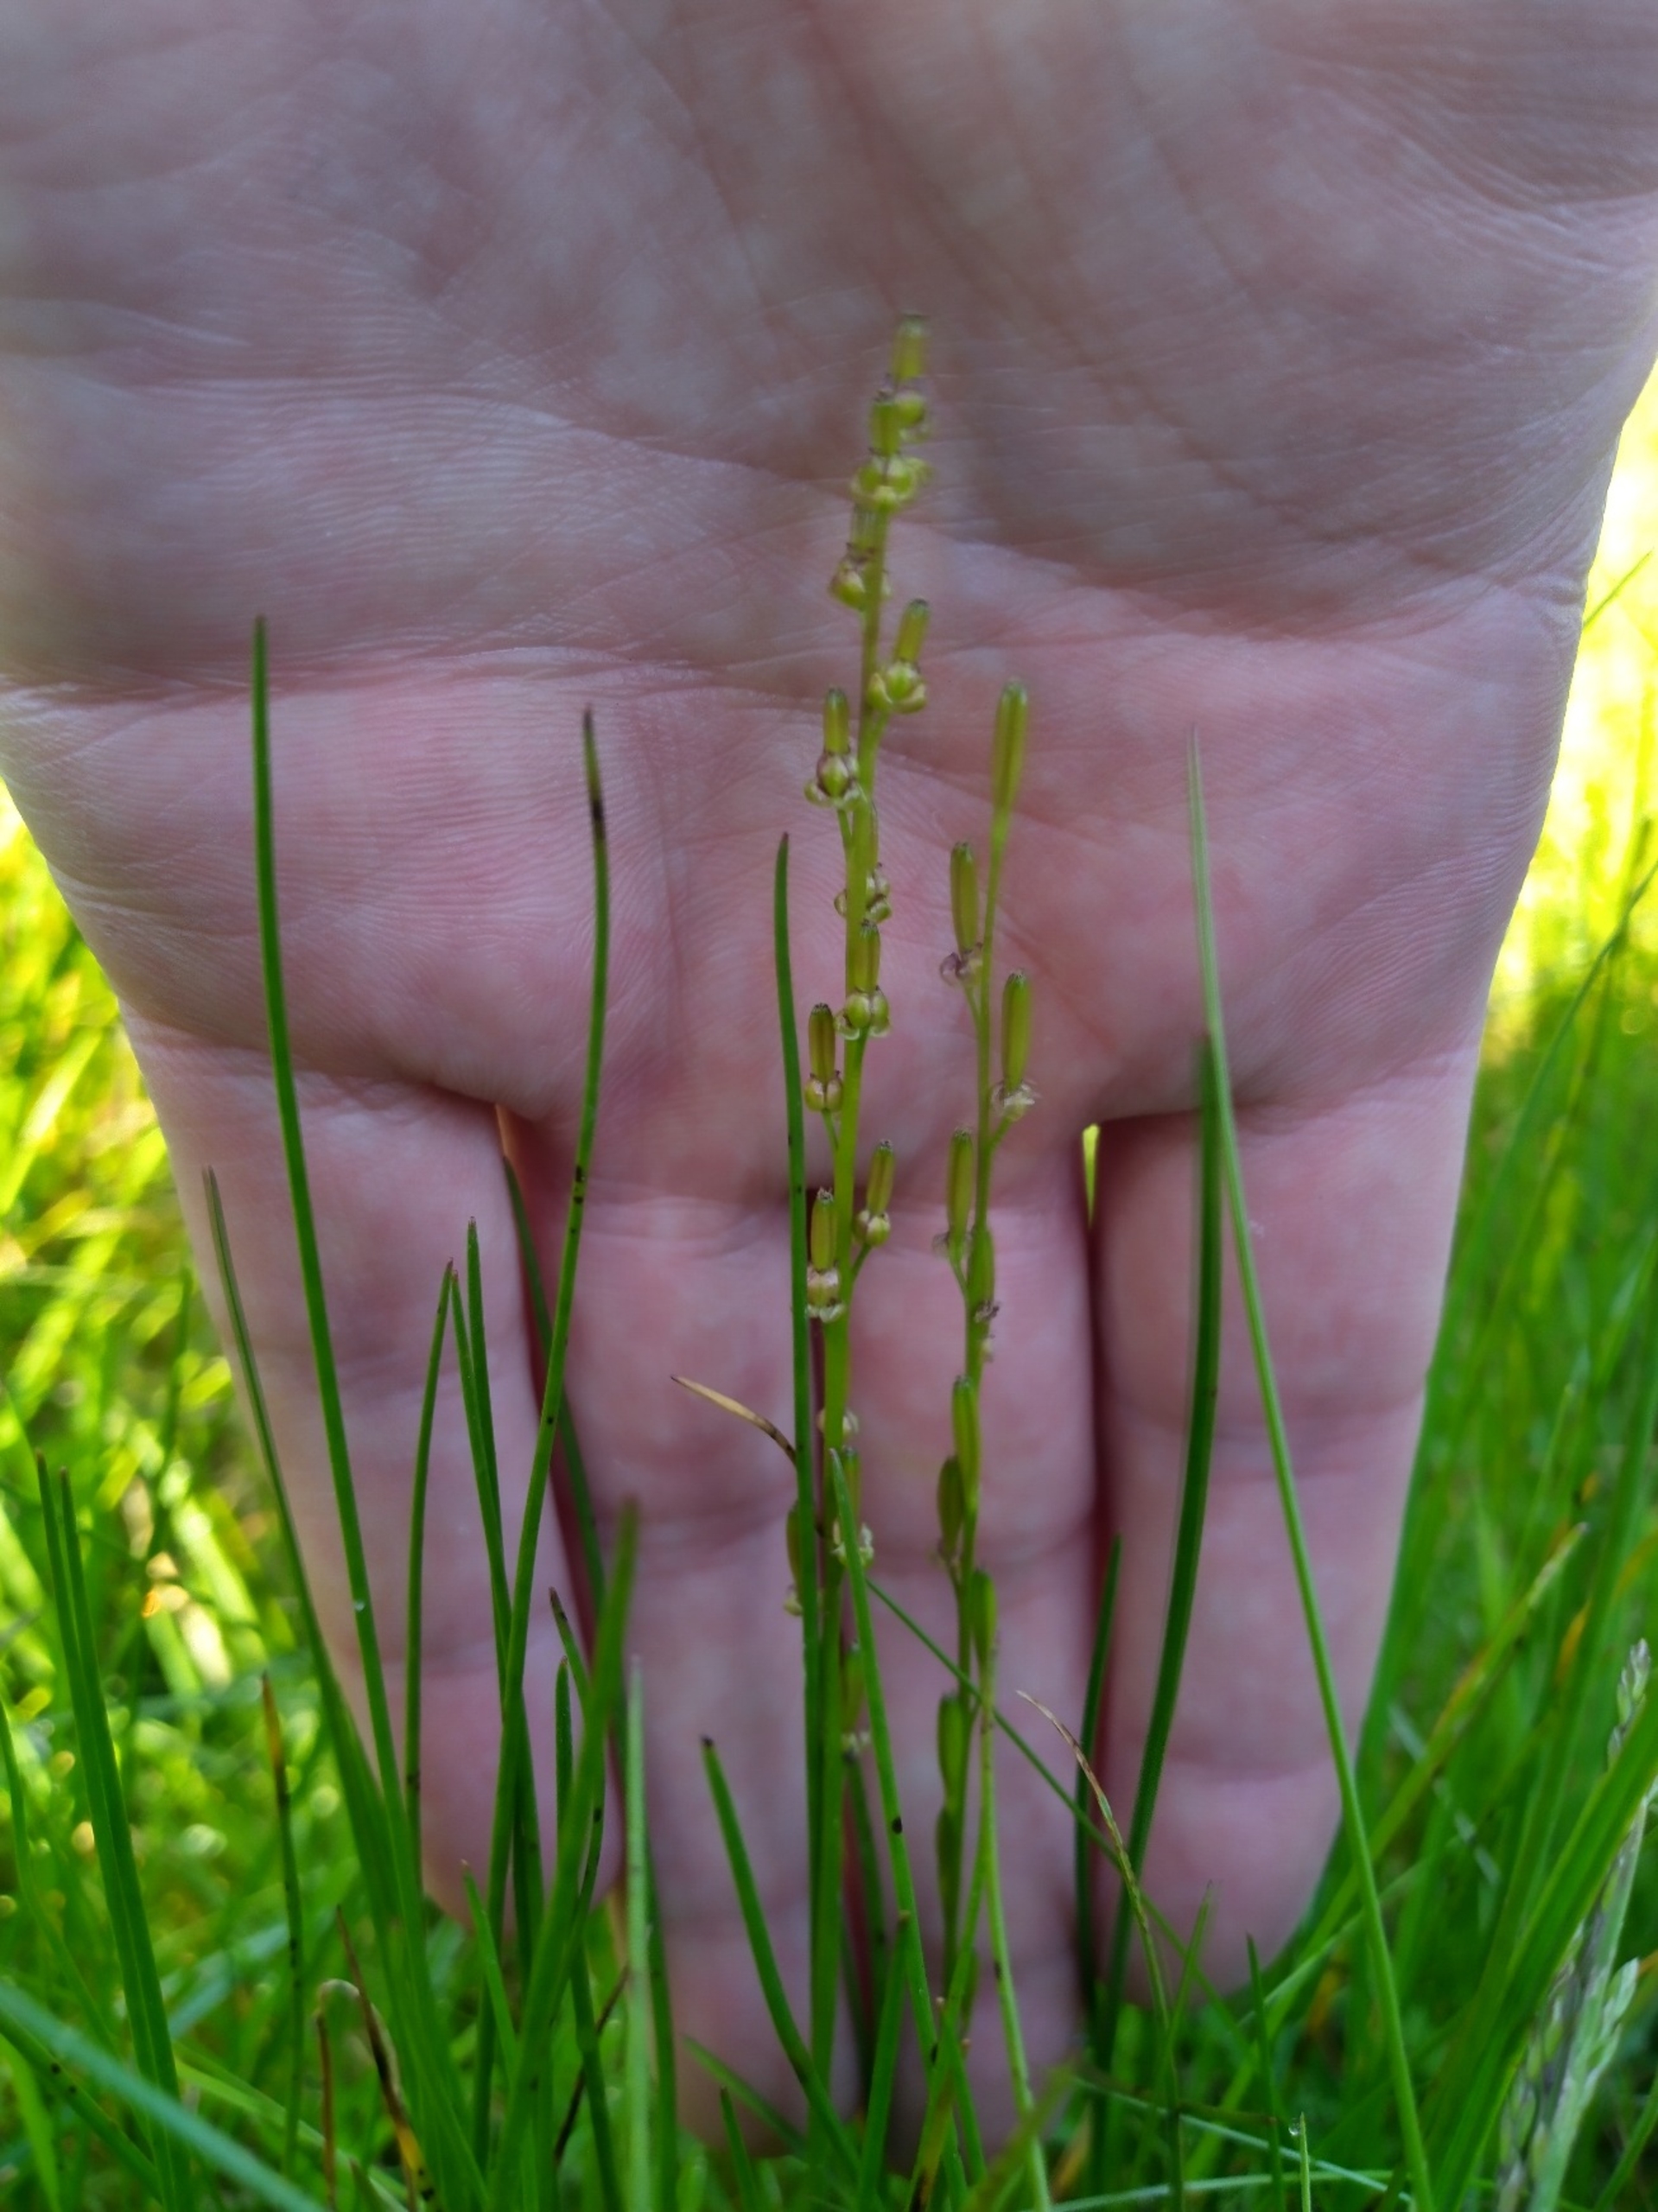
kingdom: Plantae
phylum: Tracheophyta
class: Liliopsida
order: Alismatales
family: Juncaginaceae
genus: Triglochin
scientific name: Triglochin palustris
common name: Kær-trehage
